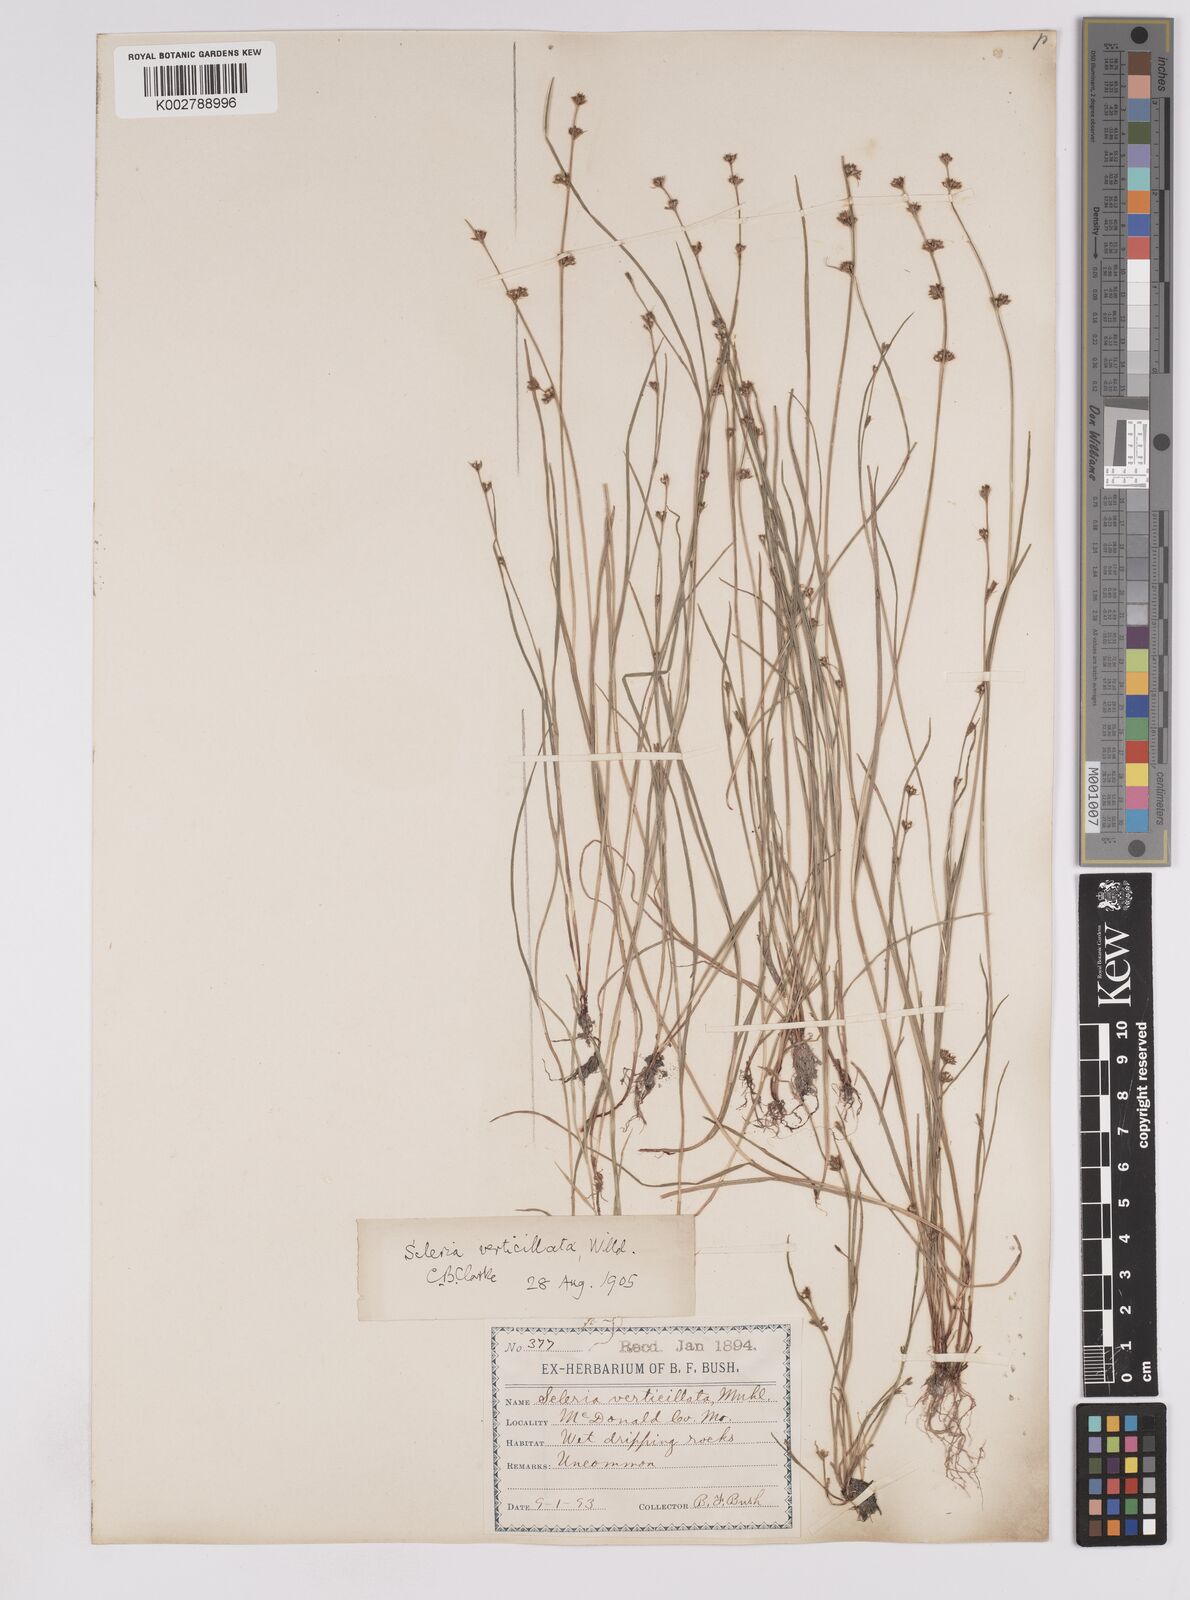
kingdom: Plantae
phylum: Tracheophyta
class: Liliopsida
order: Poales
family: Cyperaceae
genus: Scleria
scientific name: Scleria verticillata
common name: Low nutrush
